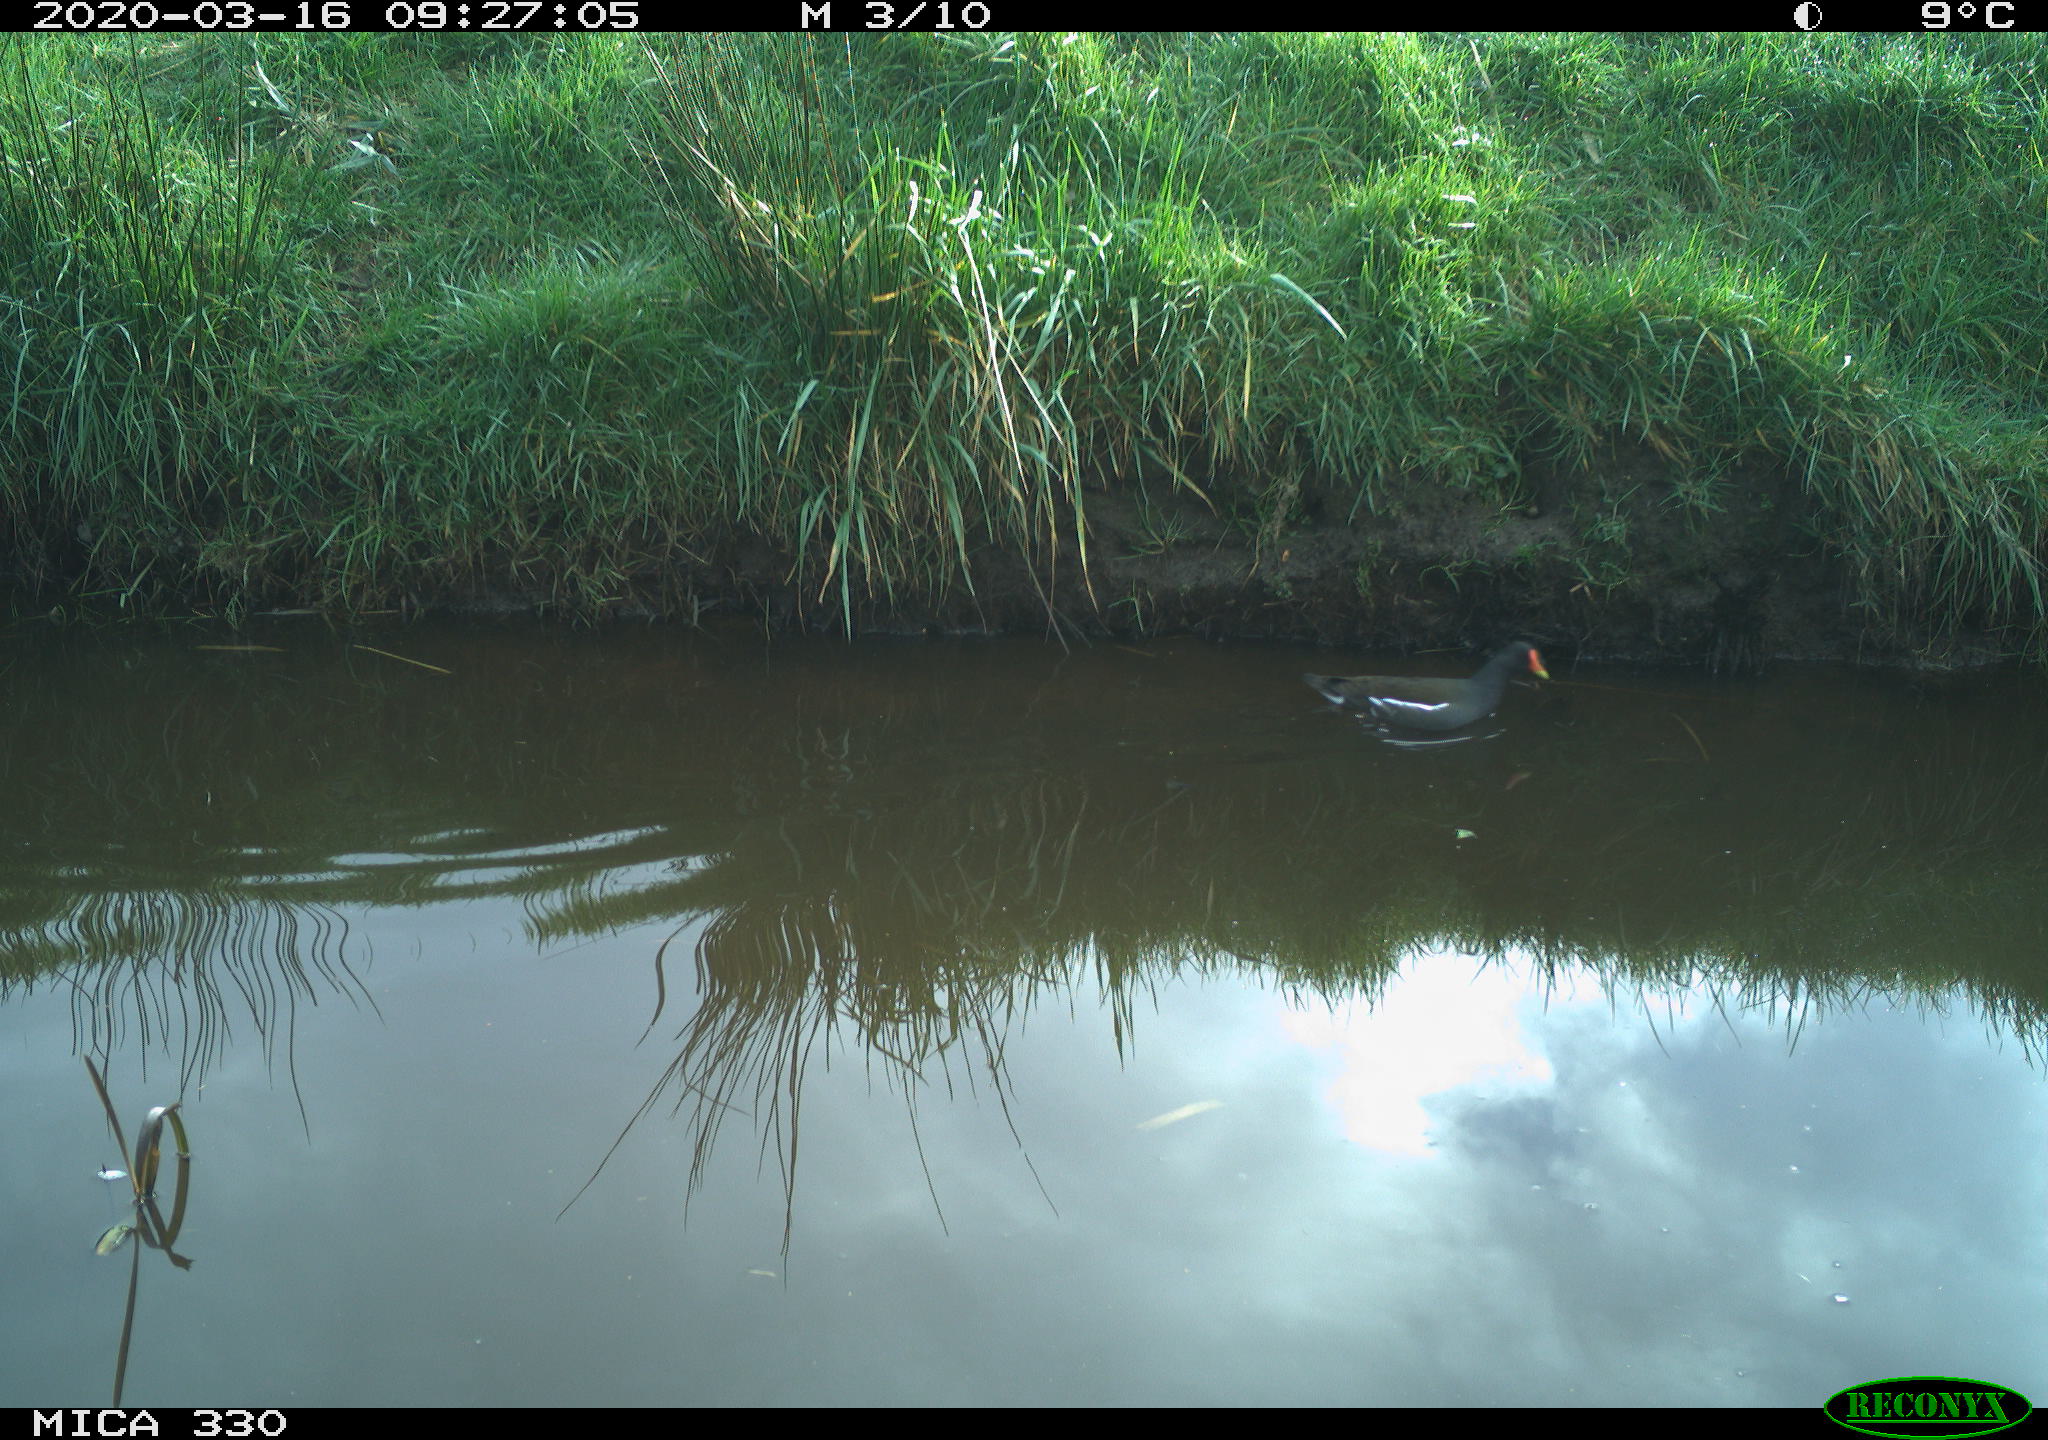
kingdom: Animalia
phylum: Chordata
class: Aves
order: Gruiformes
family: Rallidae
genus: Gallinula
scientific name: Gallinula chloropus
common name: Common moorhen
